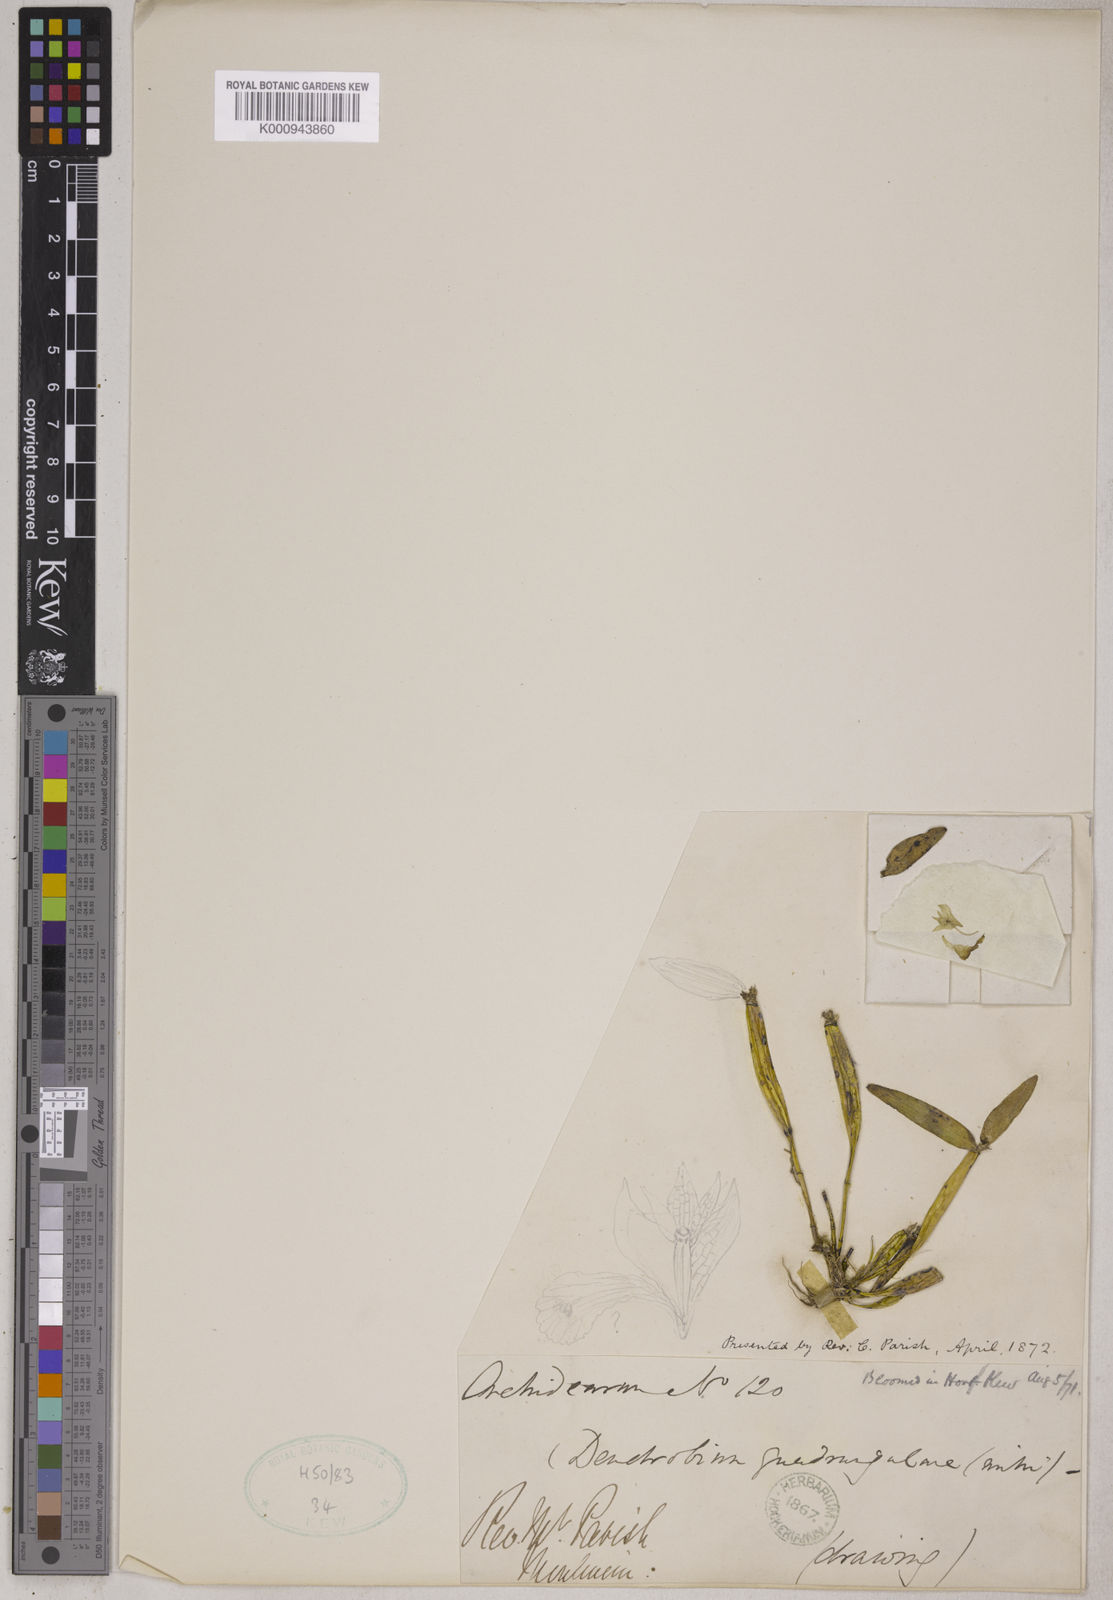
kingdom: Plantae
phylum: Tracheophyta
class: Liliopsida
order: Asparagales
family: Orchidaceae
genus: Dendrobium
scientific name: Dendrobium hymenanthum
